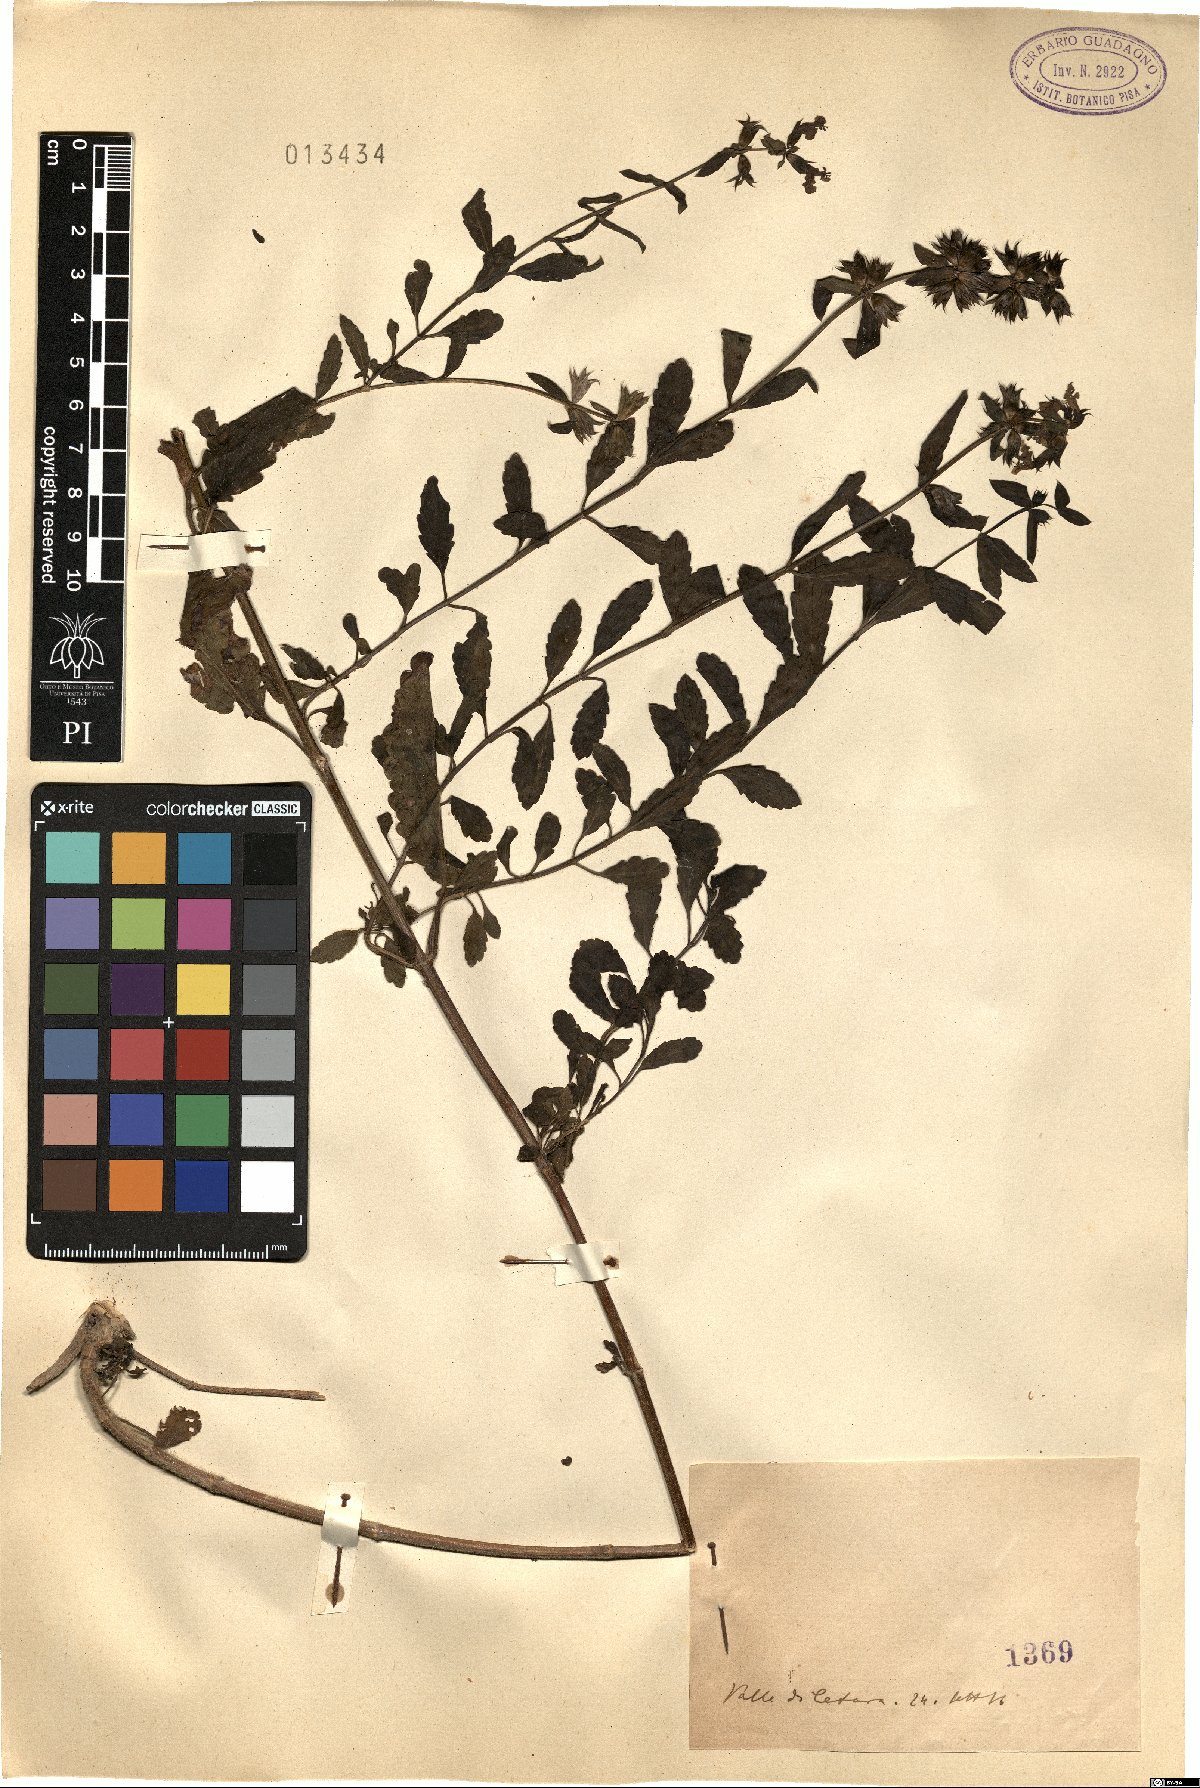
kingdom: Plantae
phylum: Tracheophyta
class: Magnoliopsida
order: Lamiales
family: Lamiaceae
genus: Stachys
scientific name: Stachys
